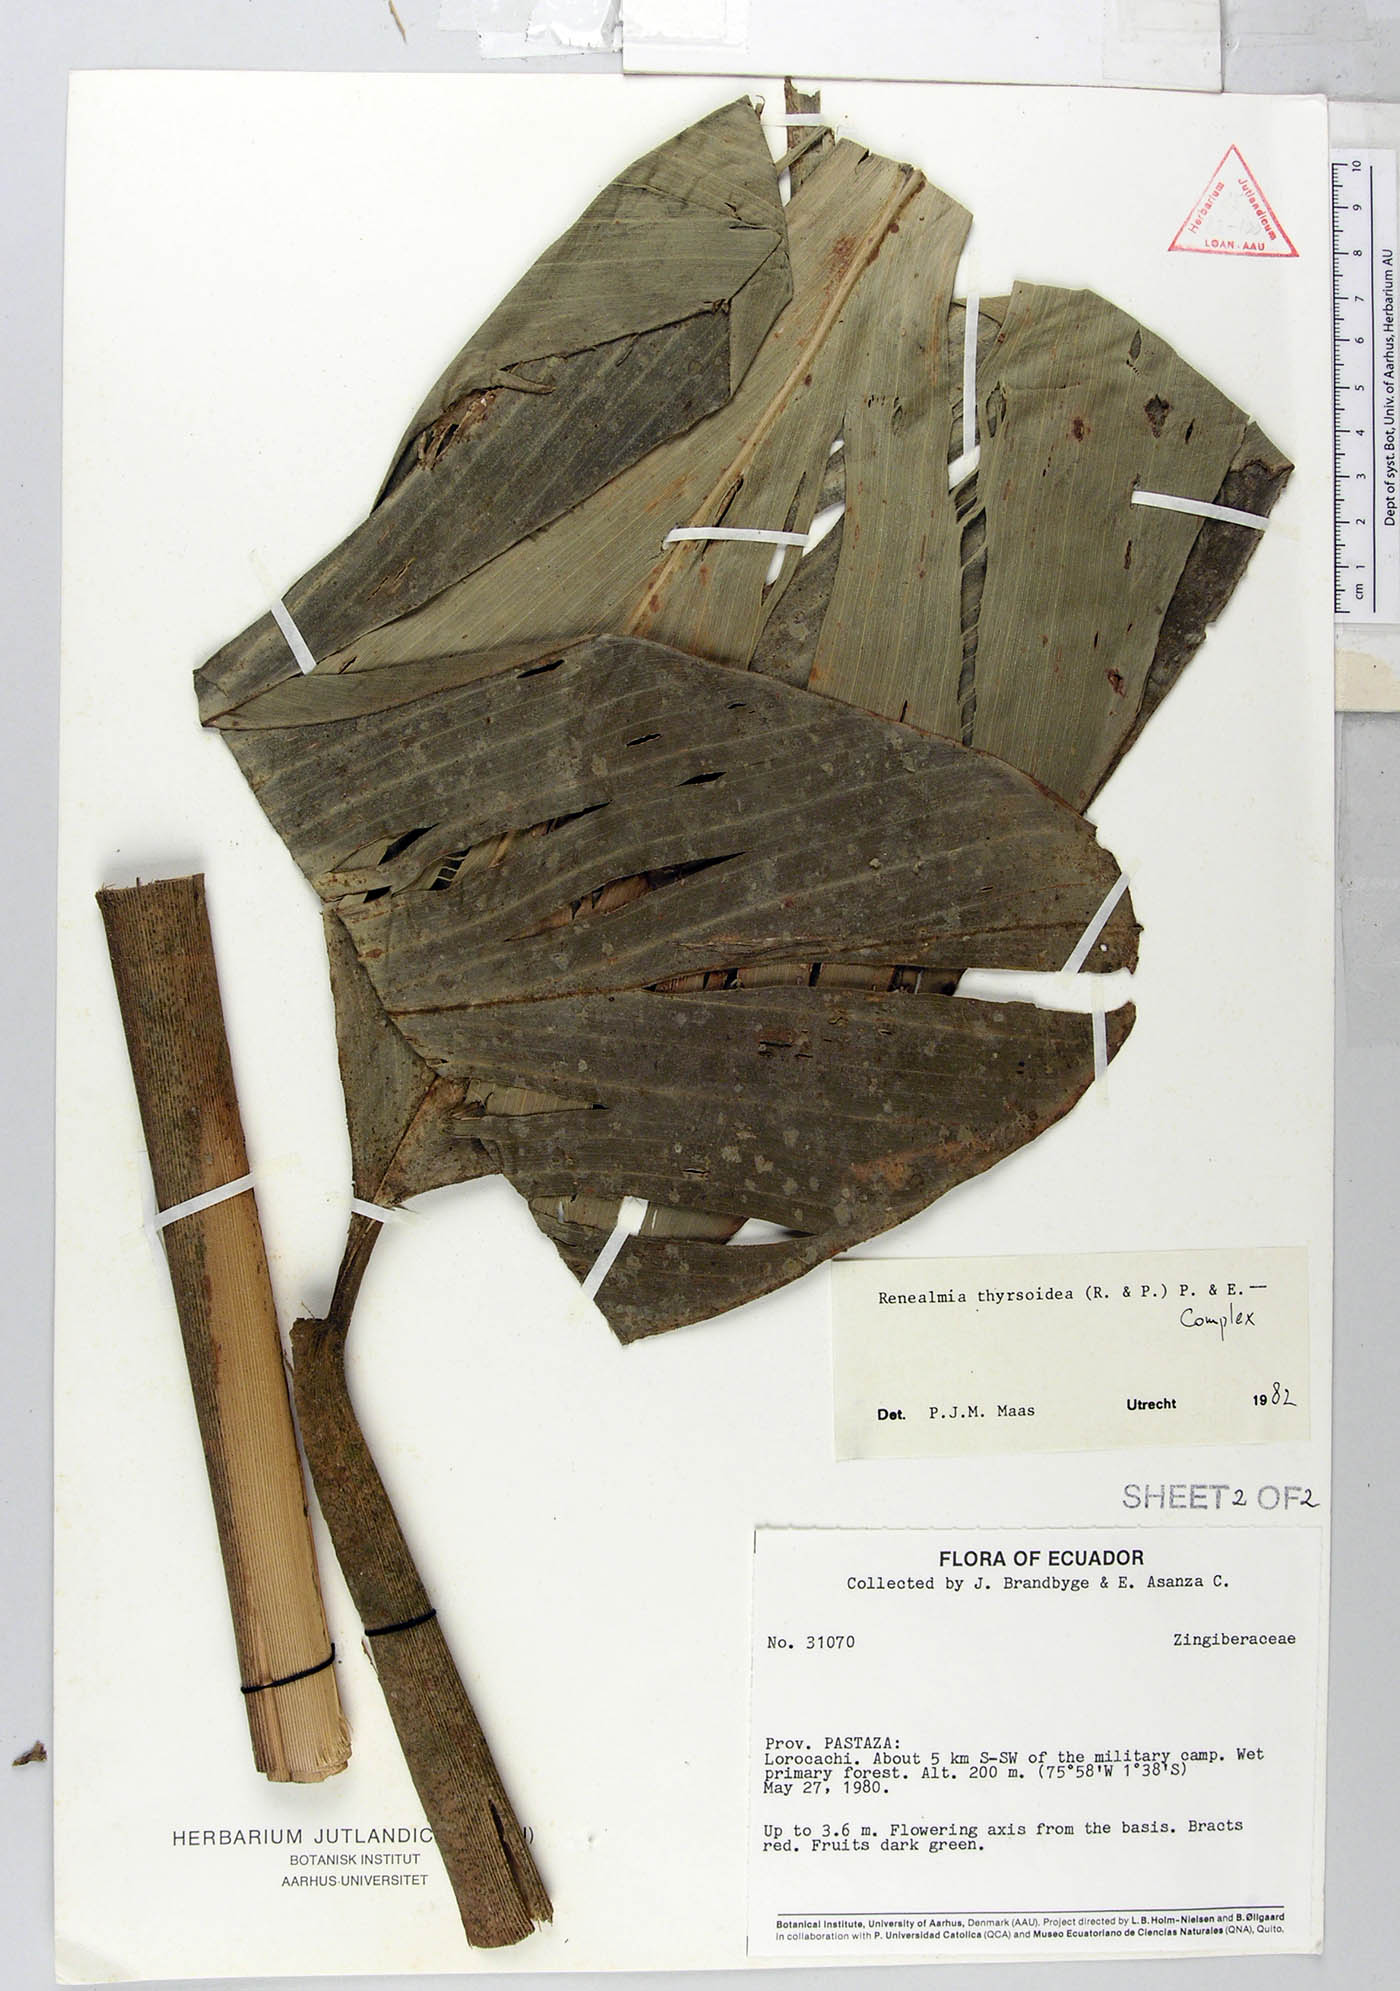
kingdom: Plantae
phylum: Tracheophyta
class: Liliopsida
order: Zingiberales
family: Zingiberaceae
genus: Renealmia
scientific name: Renealmia thyrsoidea
